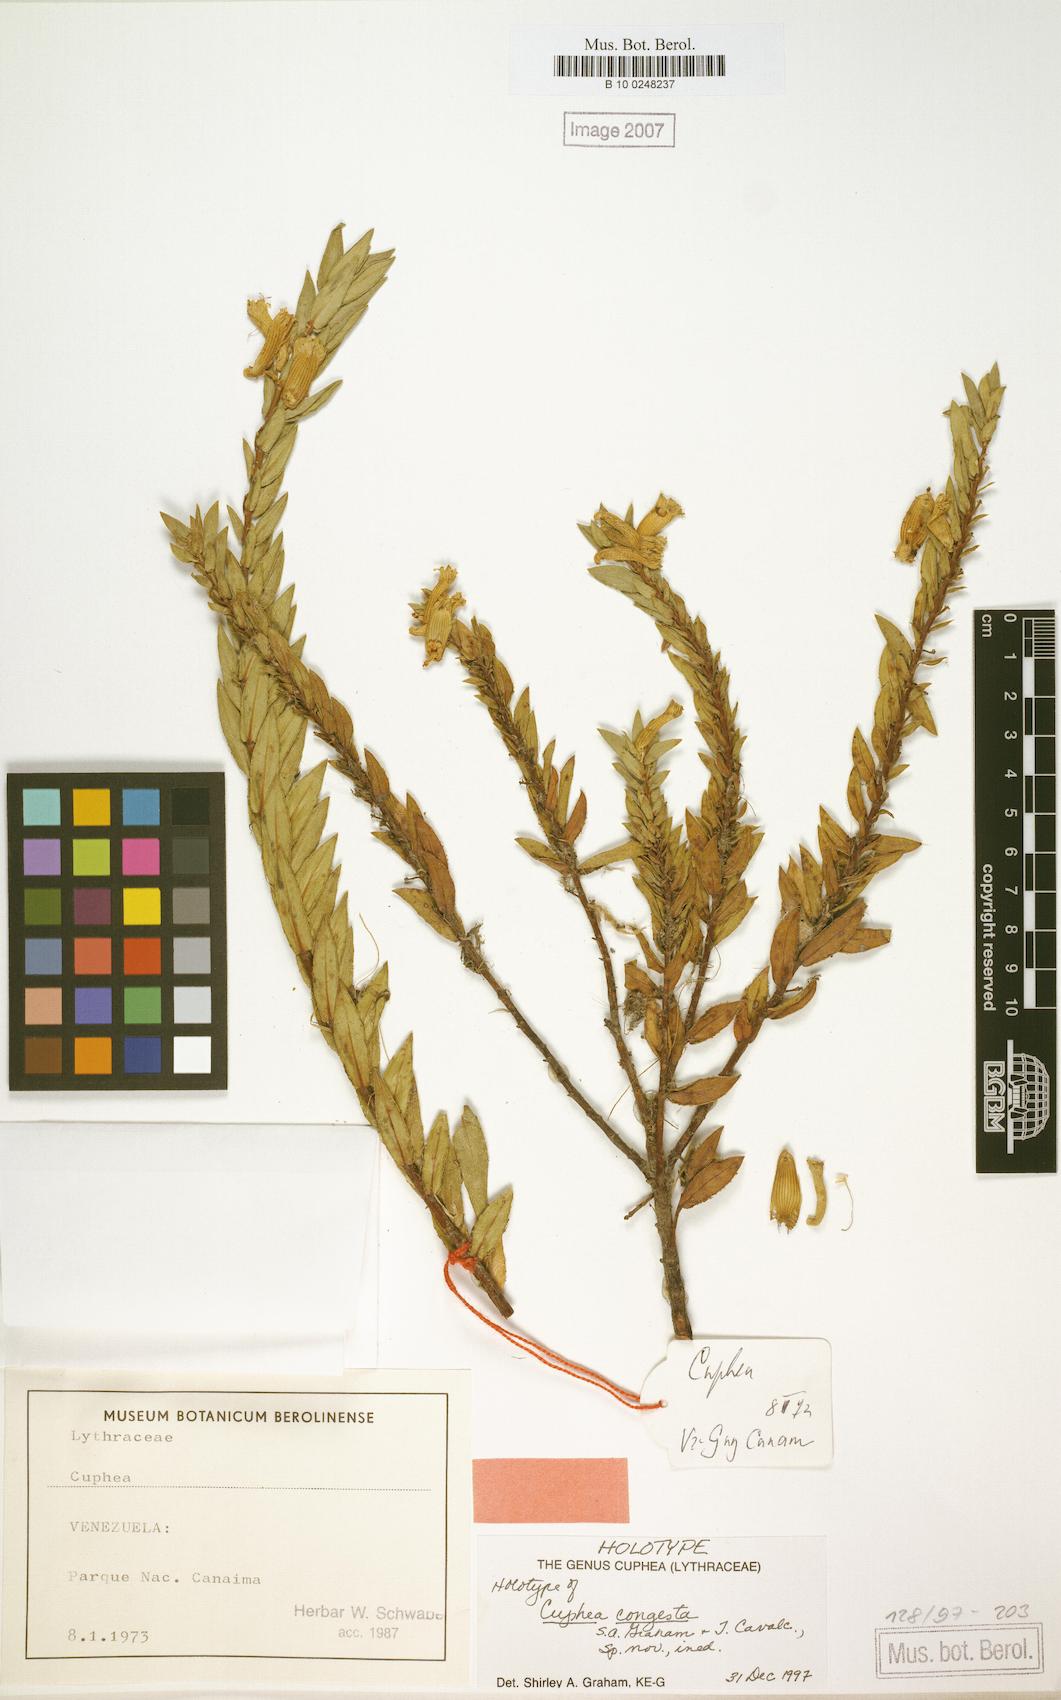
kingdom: Plantae
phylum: Tracheophyta
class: Magnoliopsida
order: Myrtales
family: Lythraceae
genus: Cuphea
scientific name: Cuphea congesta
